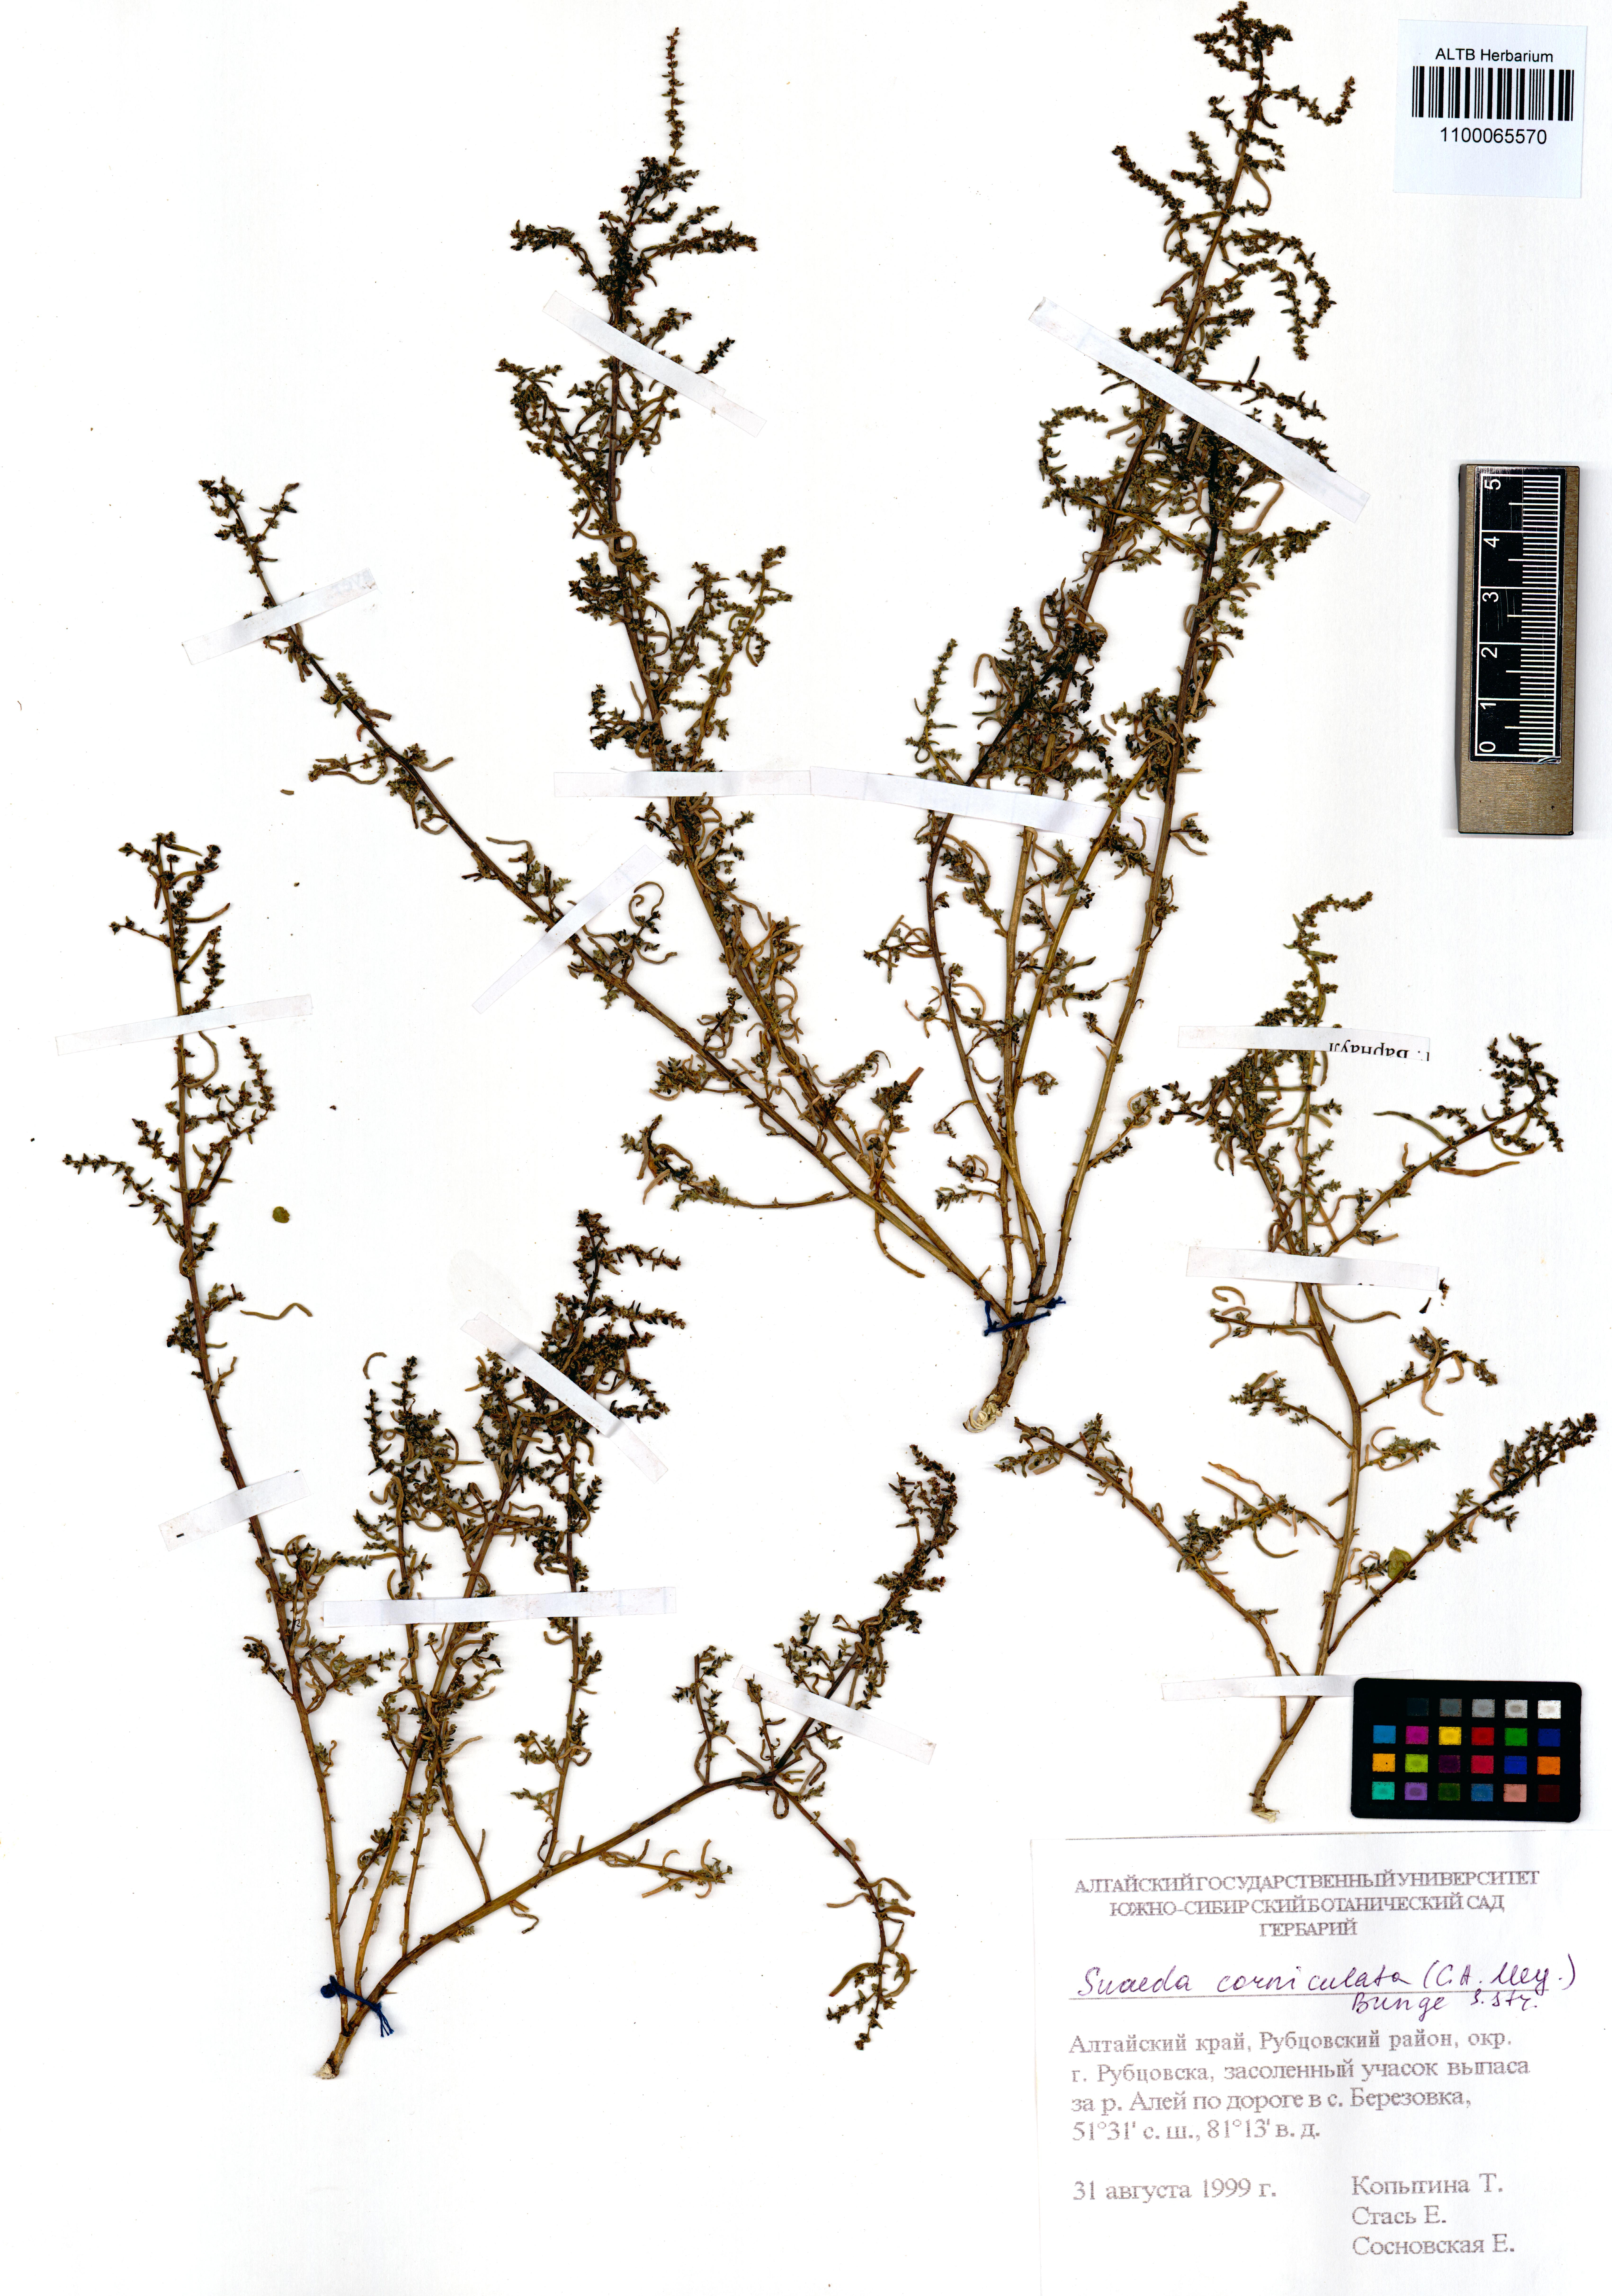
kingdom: Plantae
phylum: Tracheophyta
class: Magnoliopsida
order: Caryophyllales
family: Amaranthaceae
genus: Suaeda
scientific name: Suaeda corniculata
